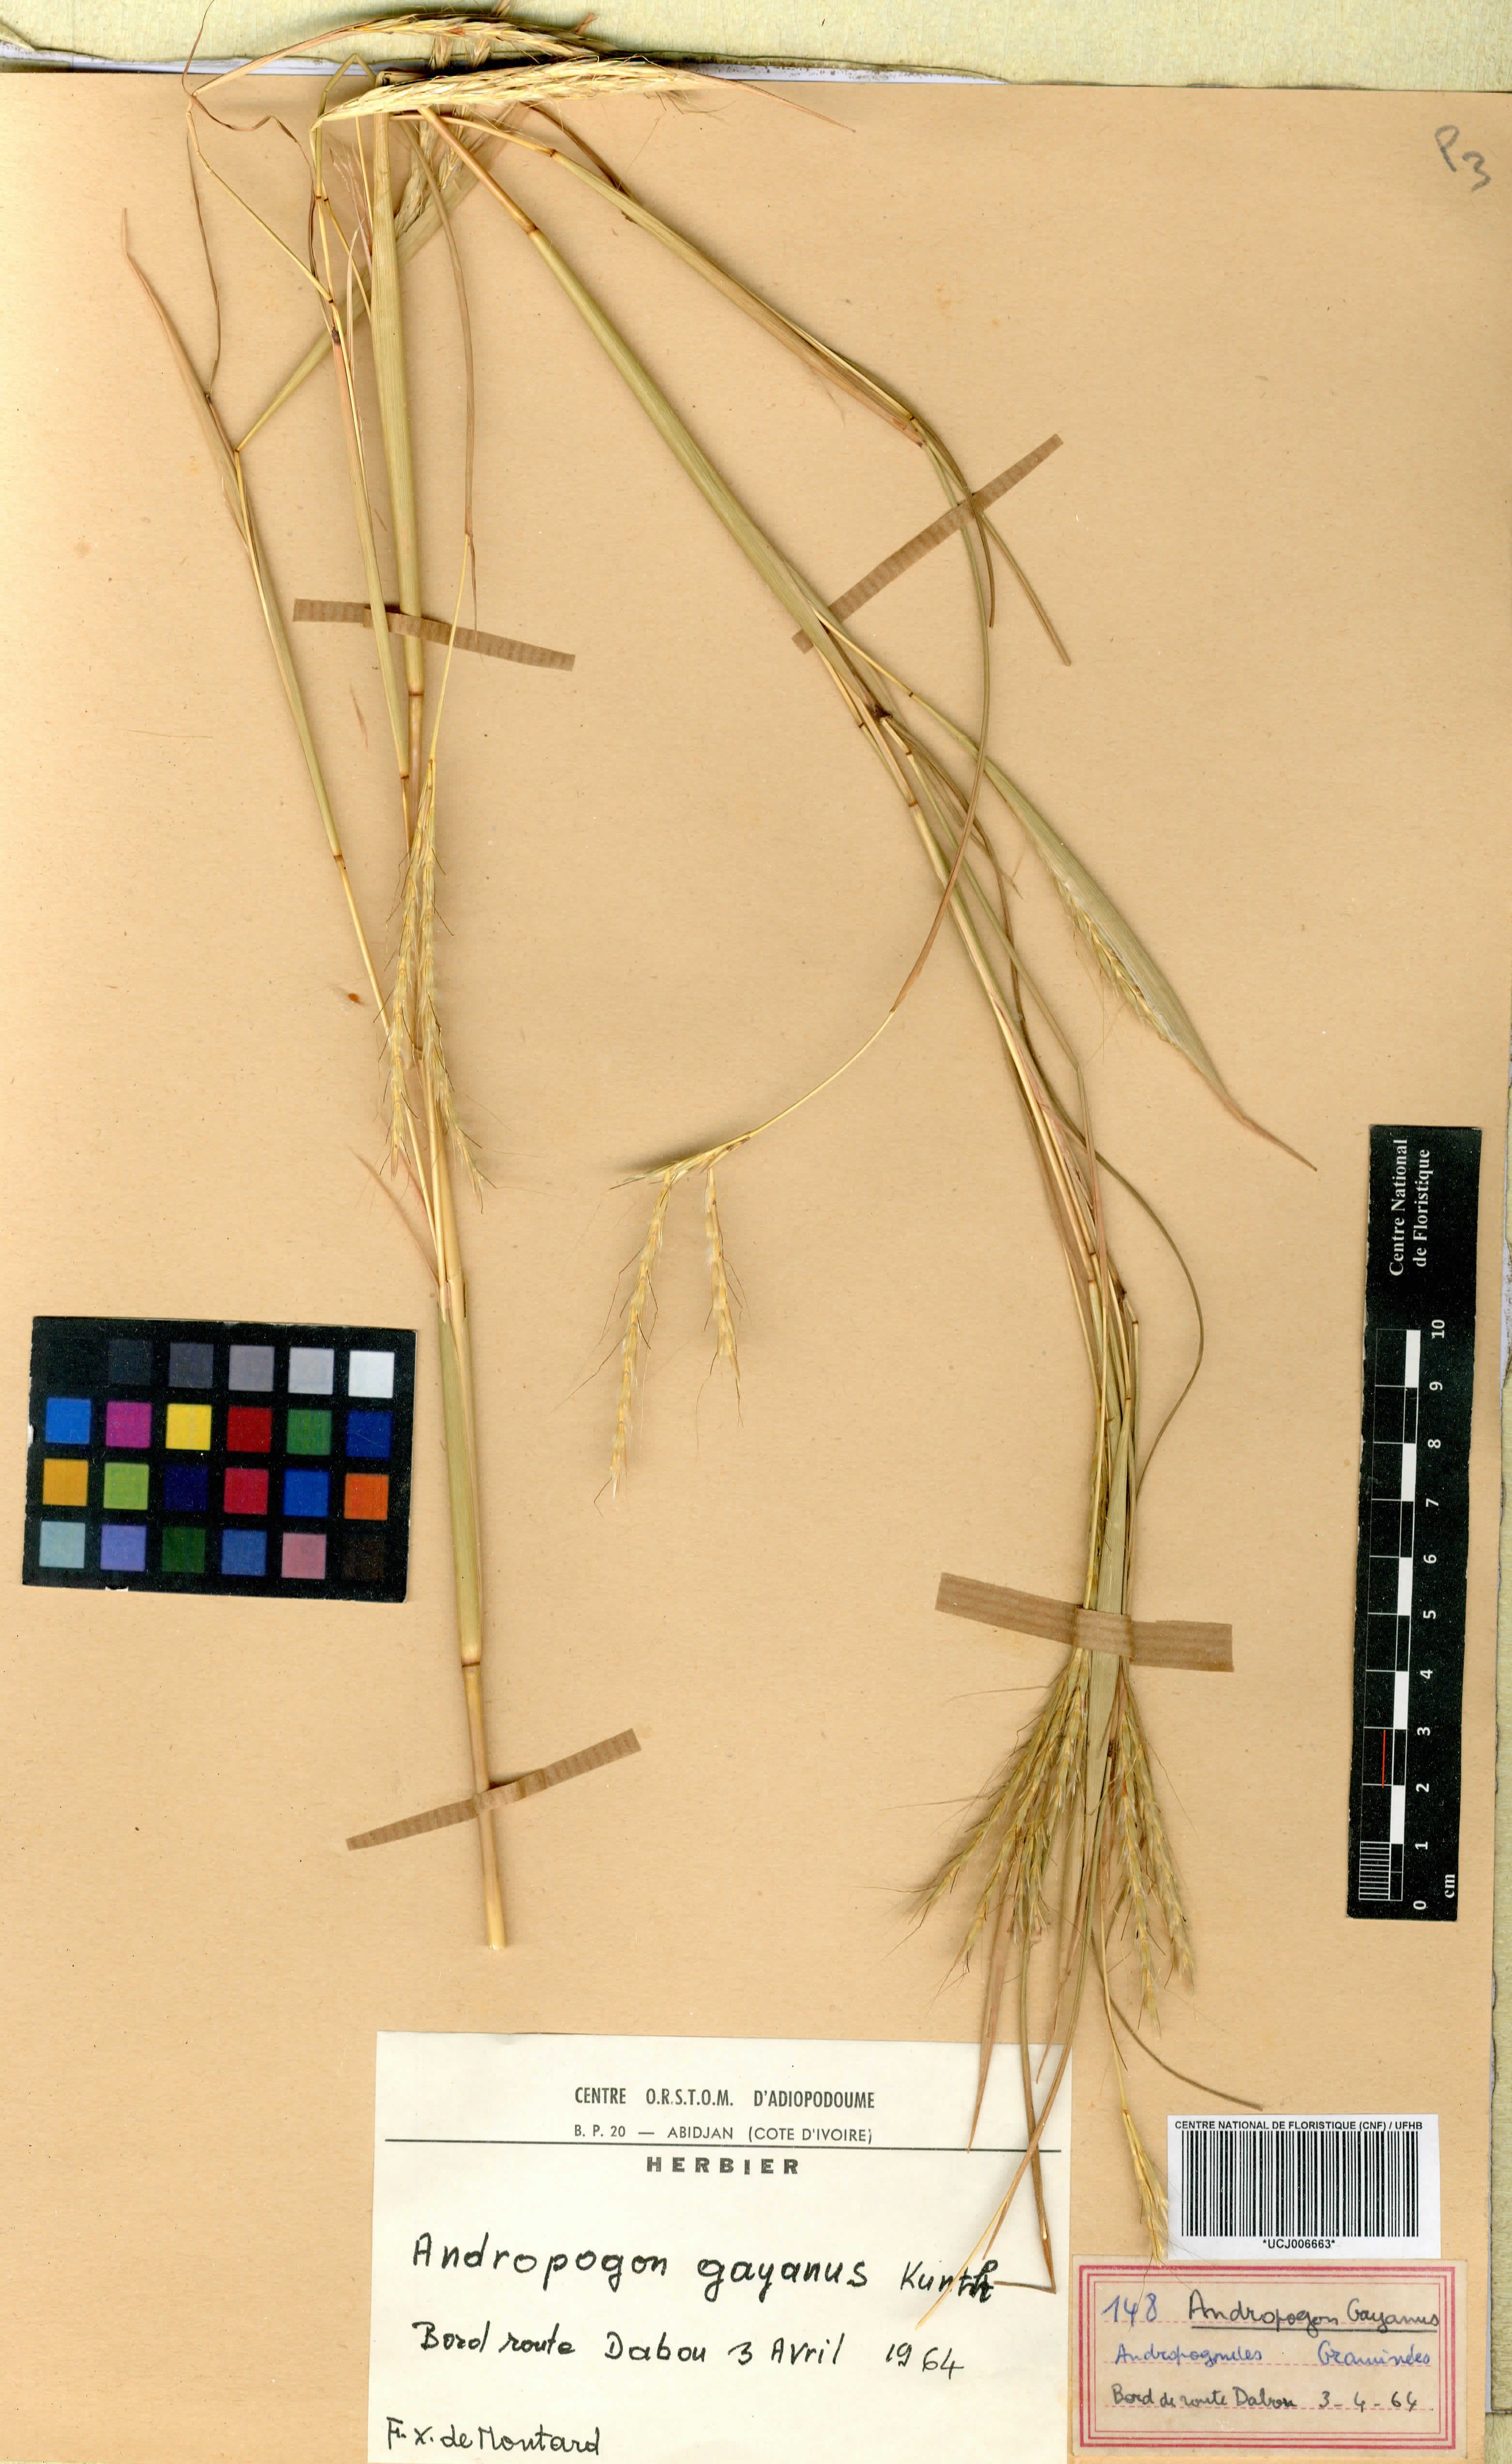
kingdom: Plantae
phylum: Tracheophyta
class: Liliopsida
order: Poales
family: Poaceae
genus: Andropogon
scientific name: Andropogon gayanus
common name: Tambuki grass
